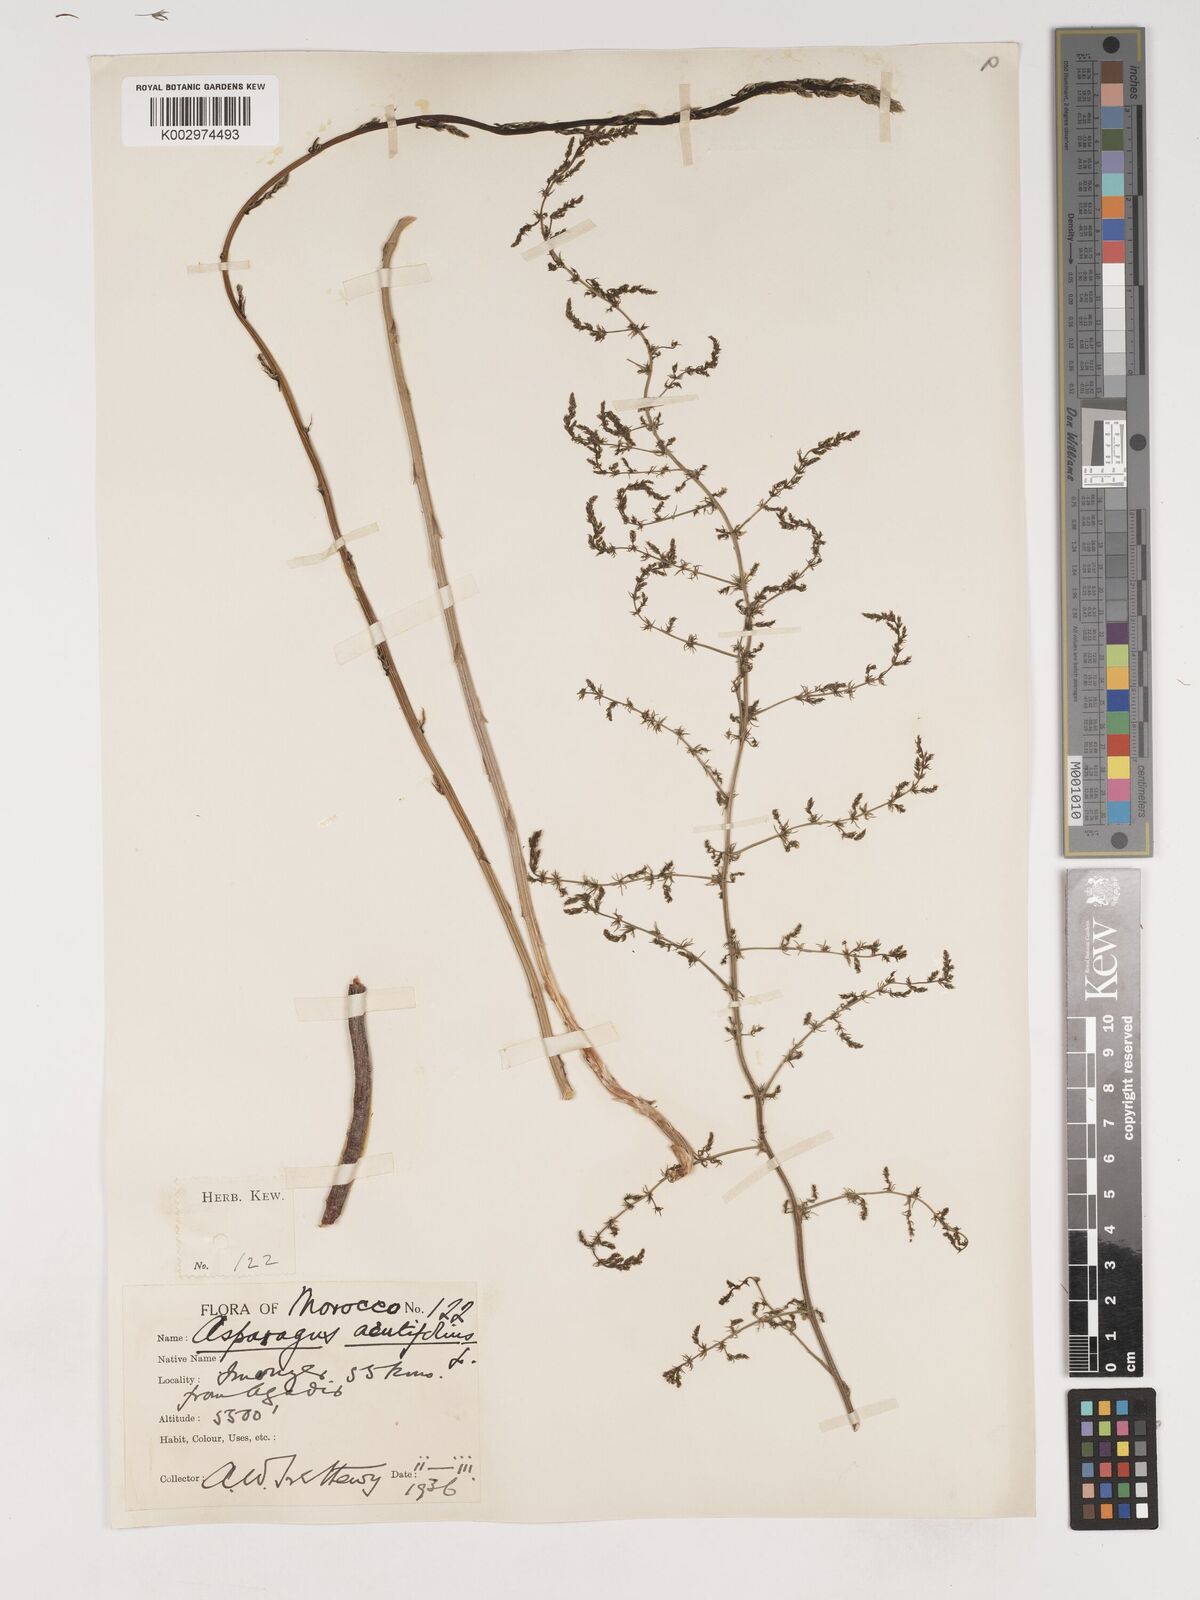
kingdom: Plantae
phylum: Tracheophyta
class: Liliopsida
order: Asparagales
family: Asparagaceae
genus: Asparagus
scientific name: Asparagus acutifolius
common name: Wild asparagus
